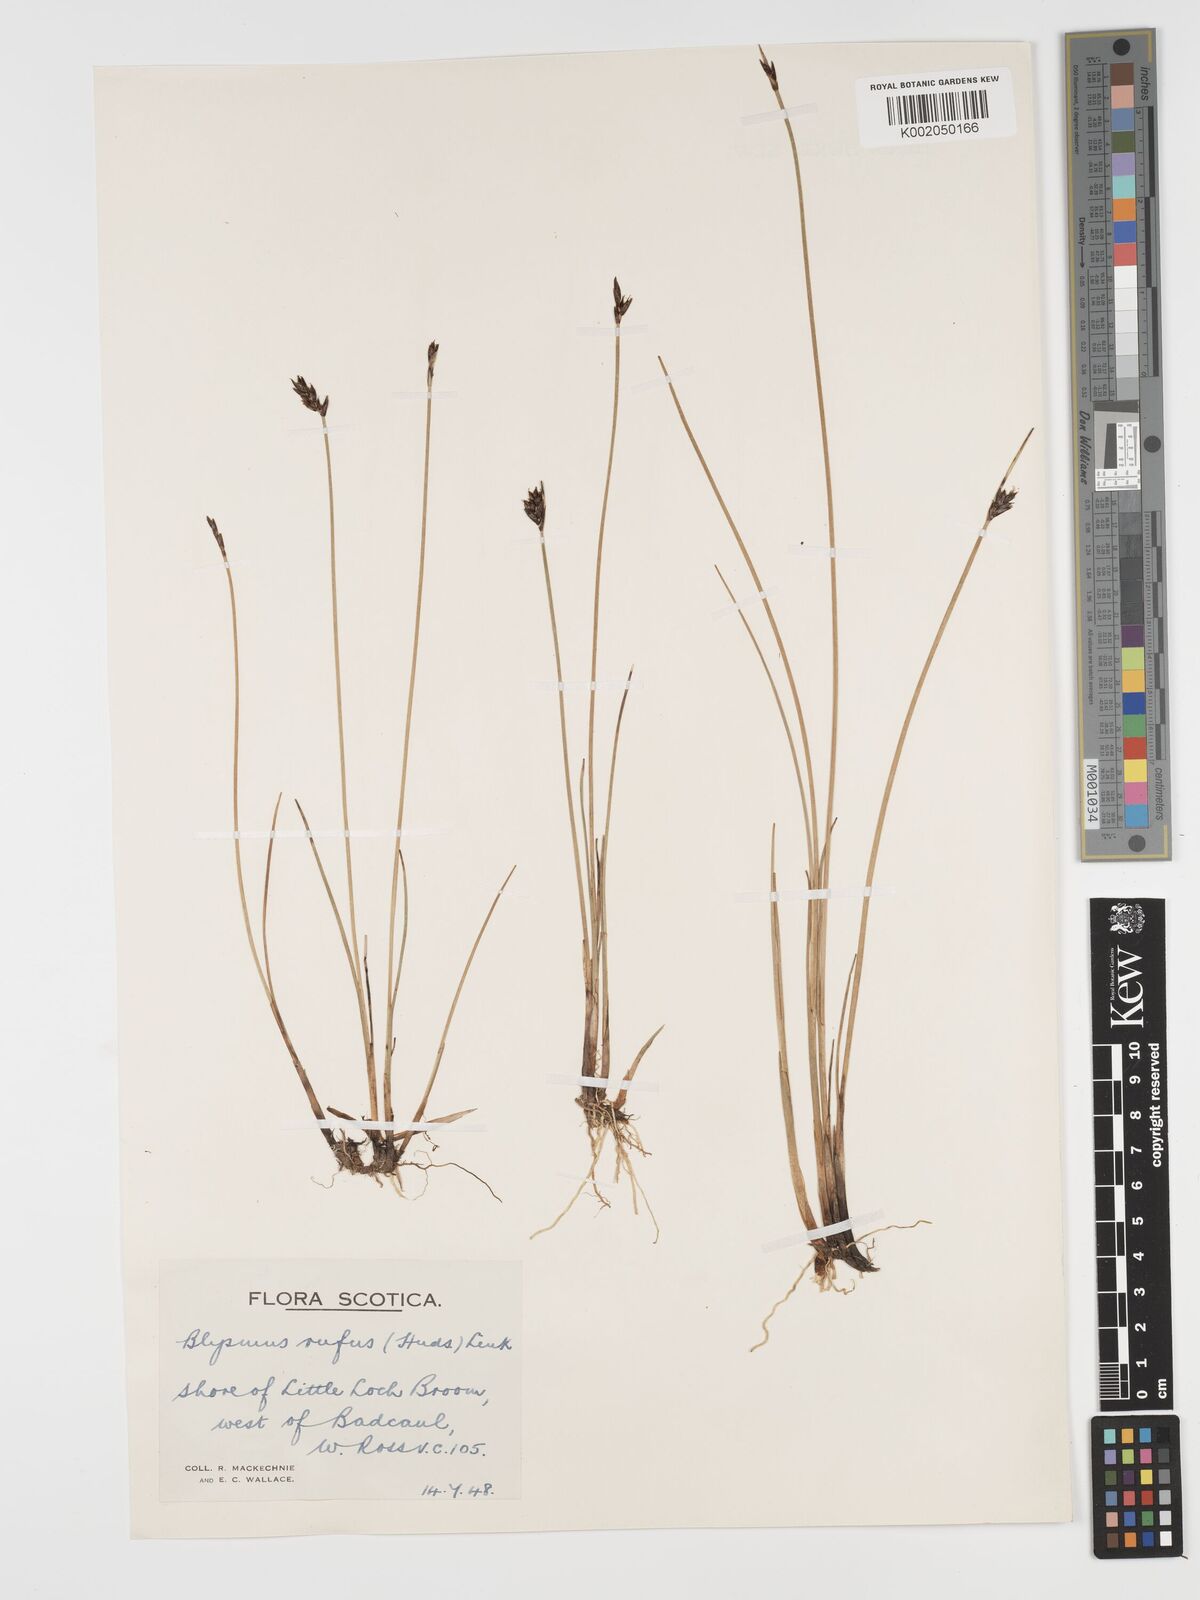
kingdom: Plantae
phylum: Tracheophyta
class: Liliopsida
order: Poales
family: Cyperaceae
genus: Blysmus
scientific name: Blysmus rufus
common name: Saltmarsh flat-sedge
